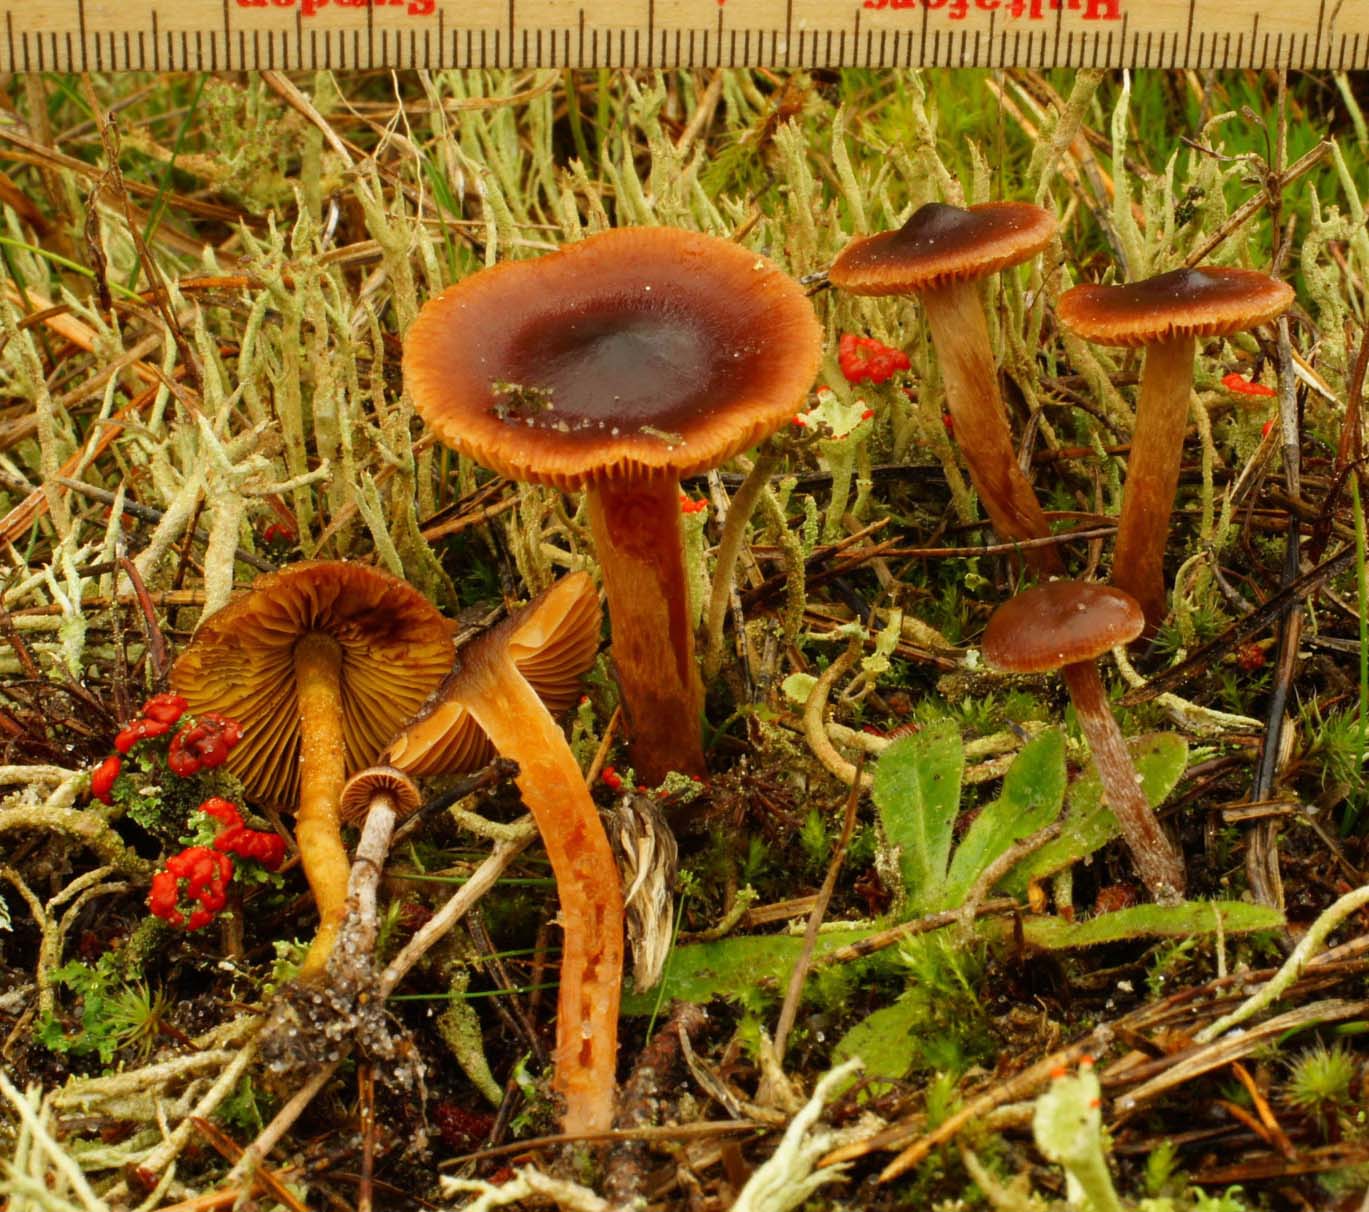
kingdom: Fungi
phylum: Basidiomycota
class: Agaricomycetes
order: Agaricales
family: Cortinariaceae
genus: Cortinarius
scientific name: Cortinarius anthracinus
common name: purpursort slørhat
